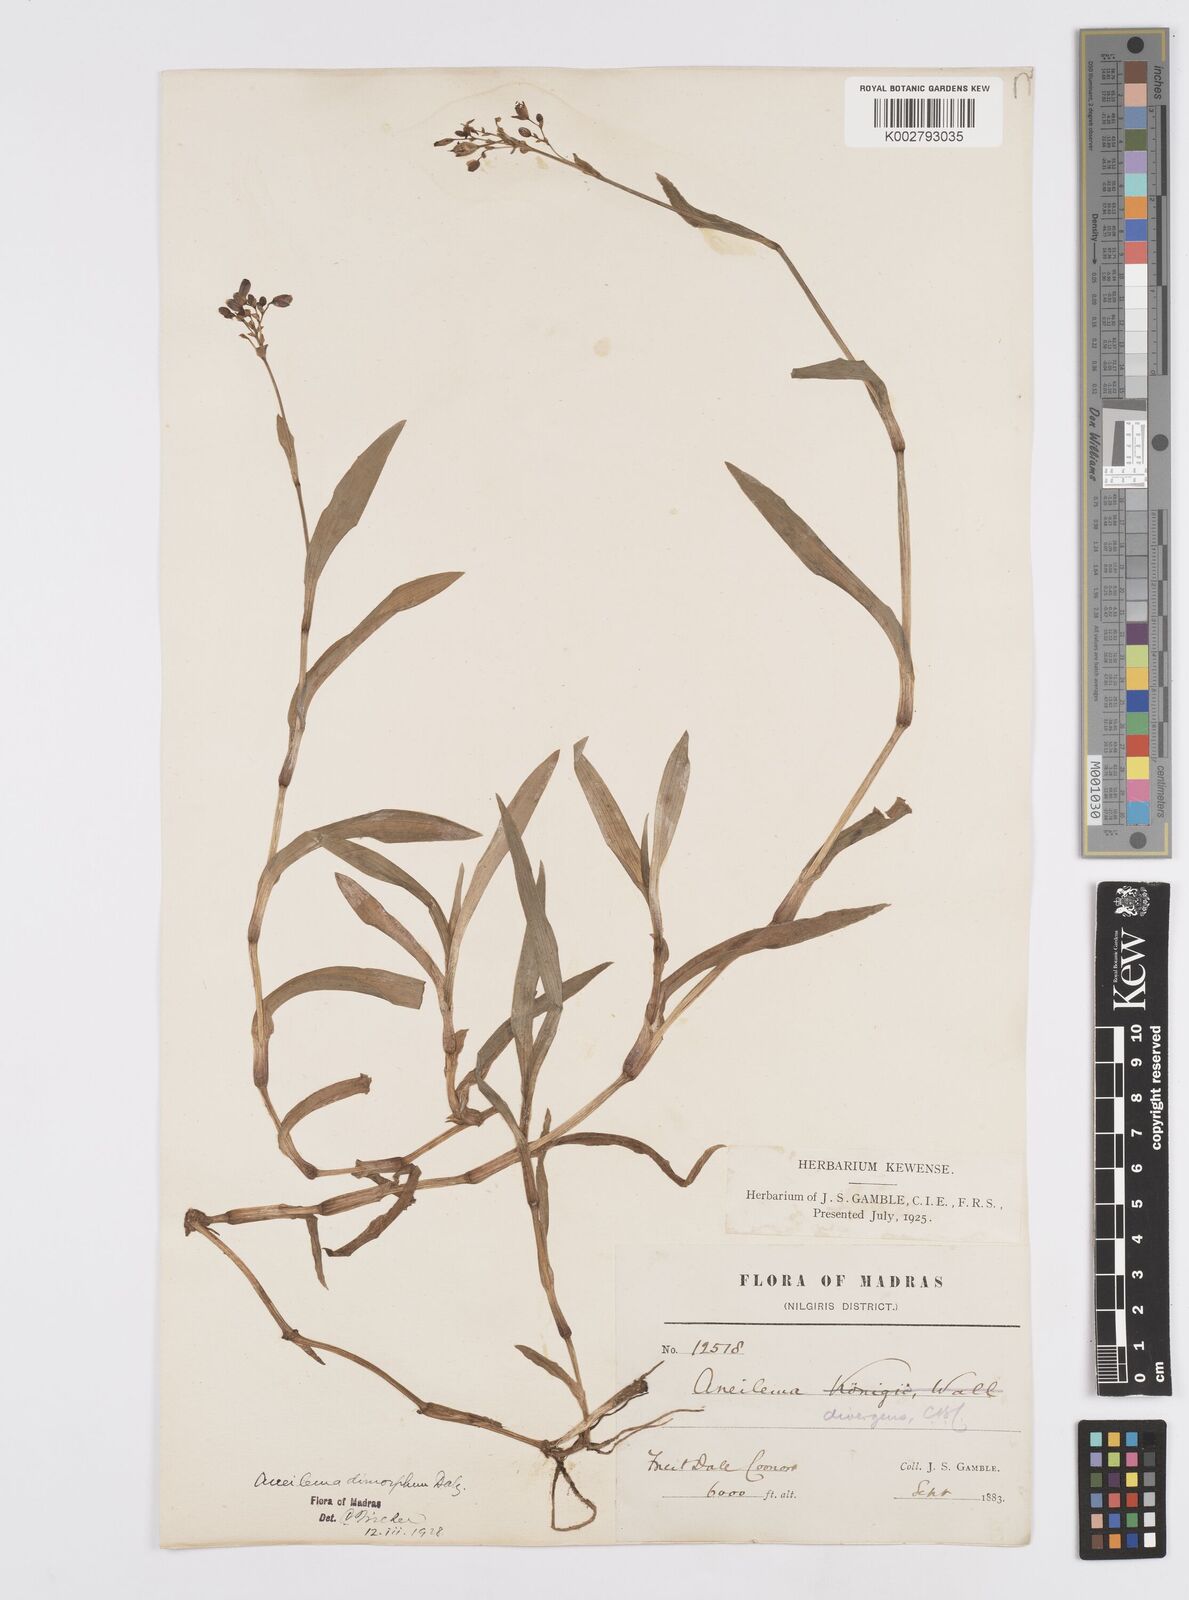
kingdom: Plantae
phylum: Tracheophyta
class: Liliopsida
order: Commelinales
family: Commelinaceae
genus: Murdannia
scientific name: Murdannia dimorpha
